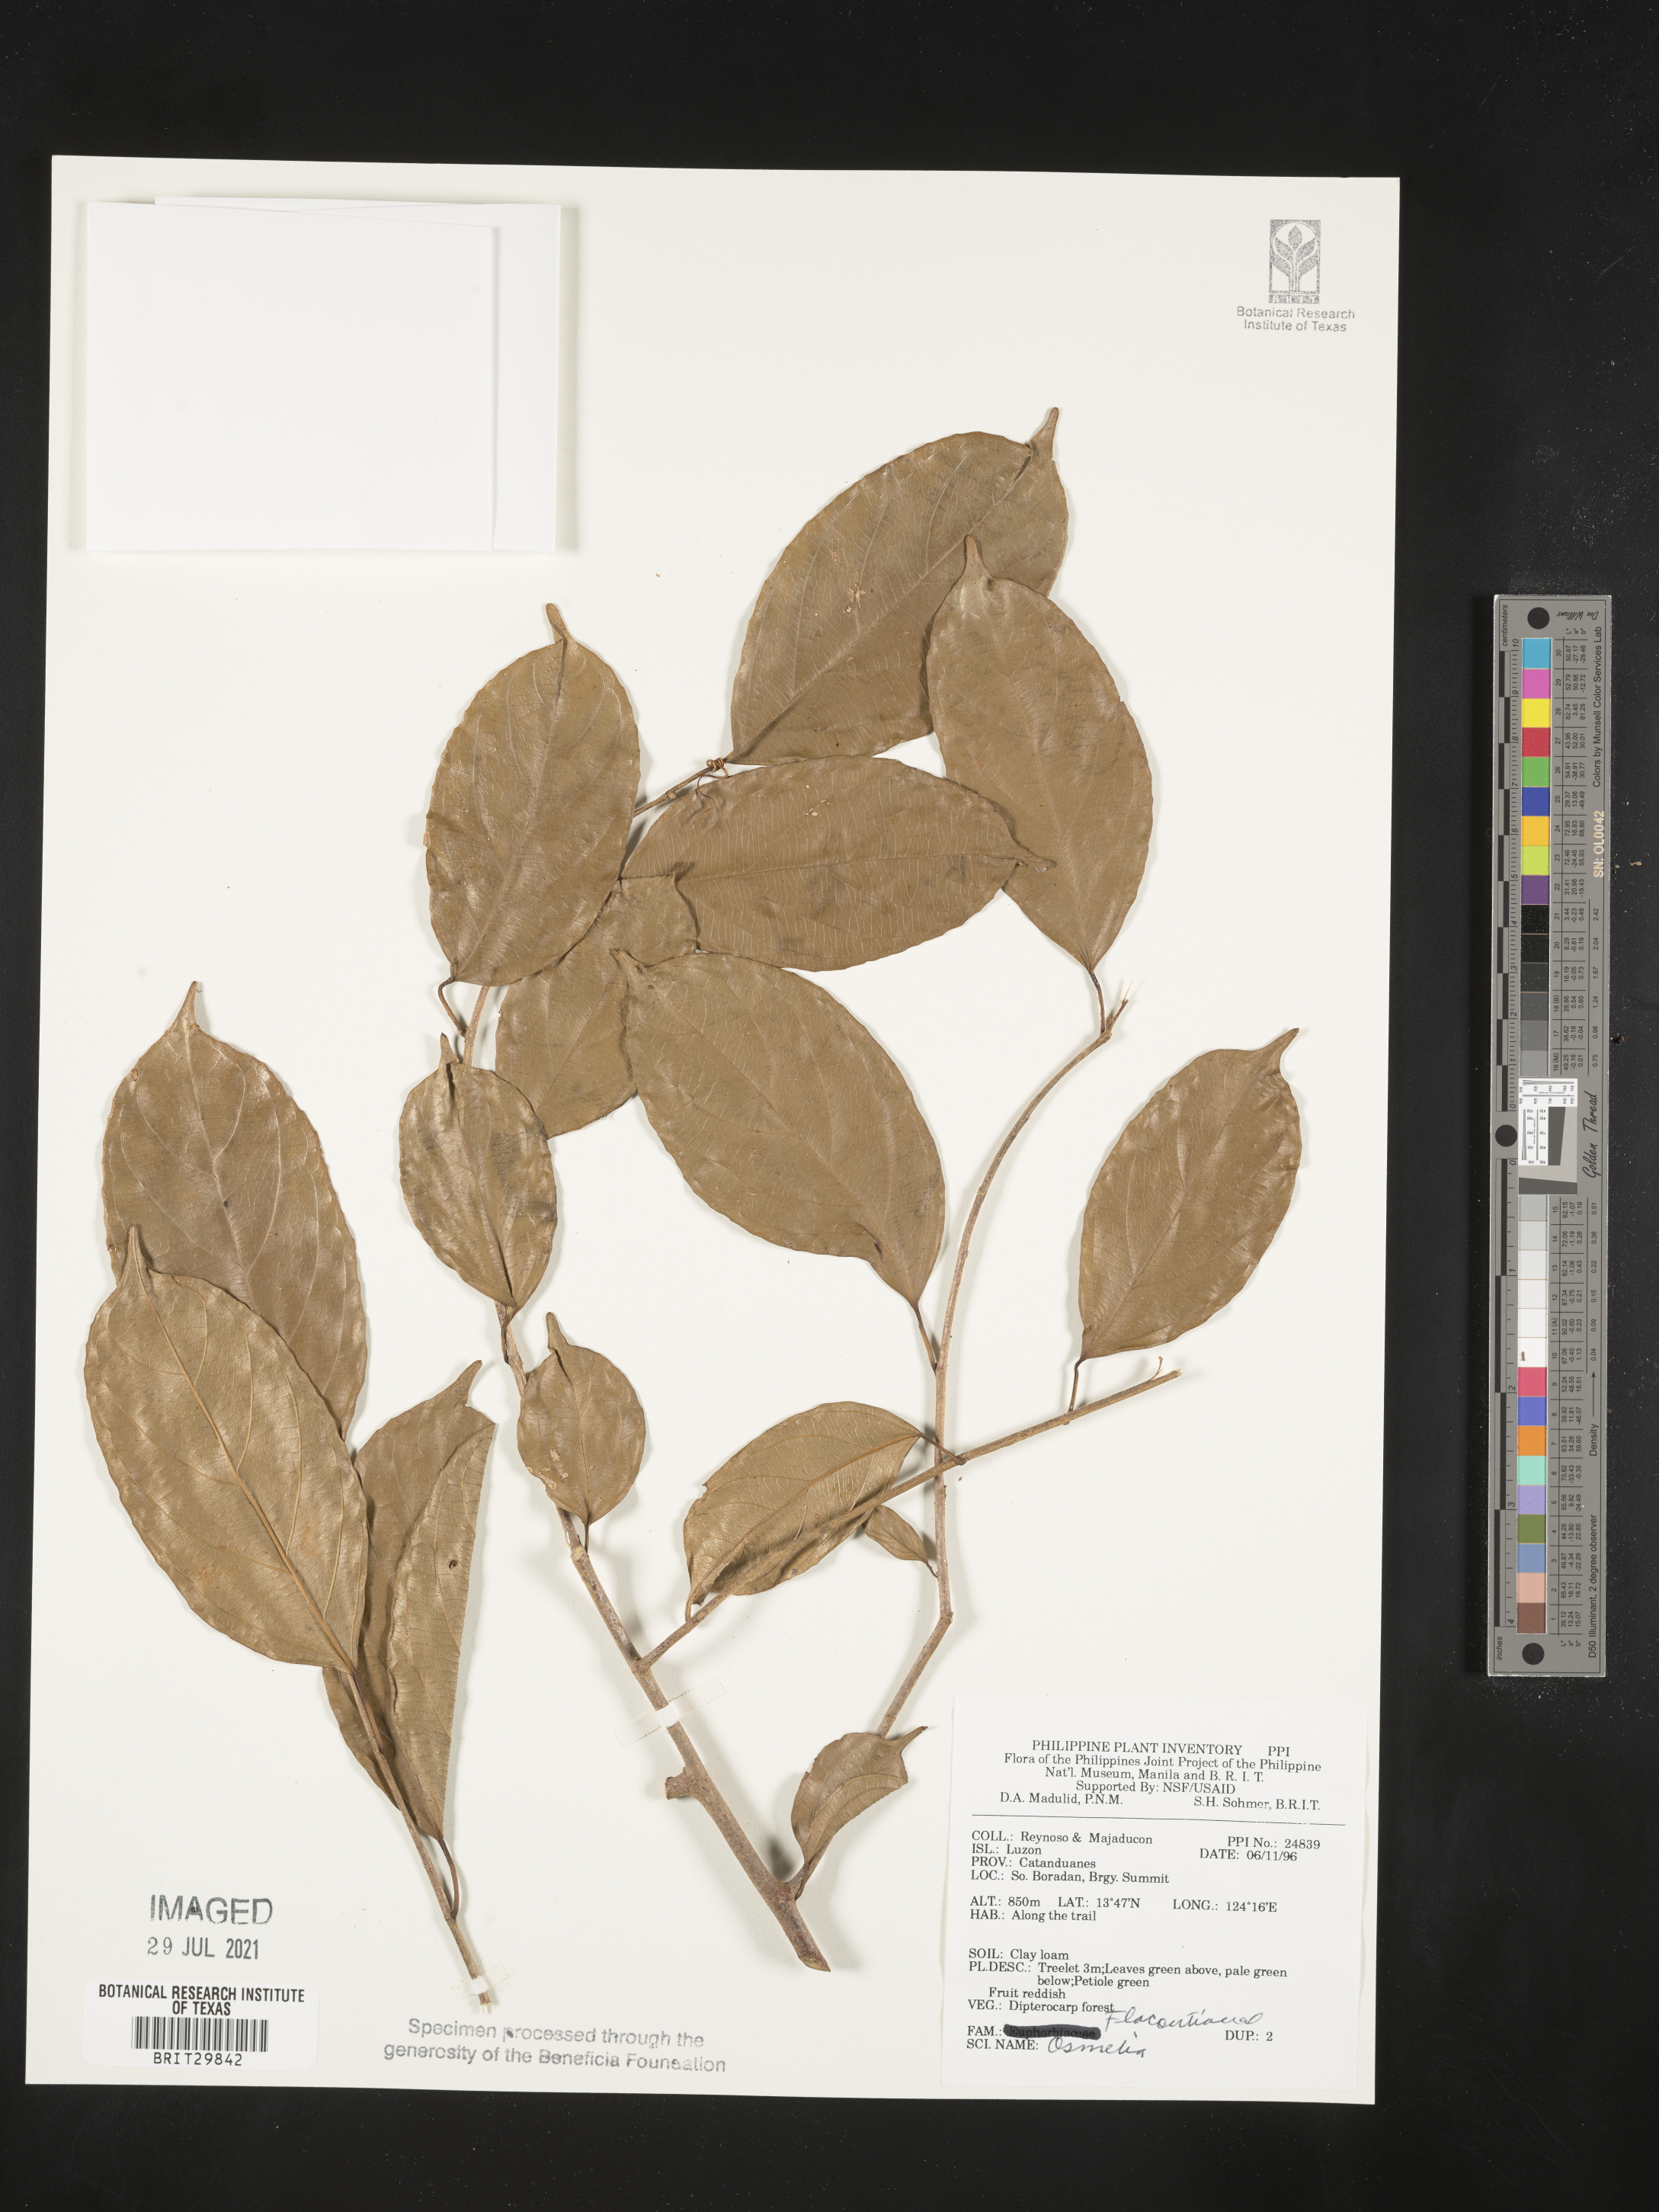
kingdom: Plantae
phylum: Tracheophyta
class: Magnoliopsida
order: Malpighiales
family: Salicaceae
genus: Osmelia
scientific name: Osmelia
